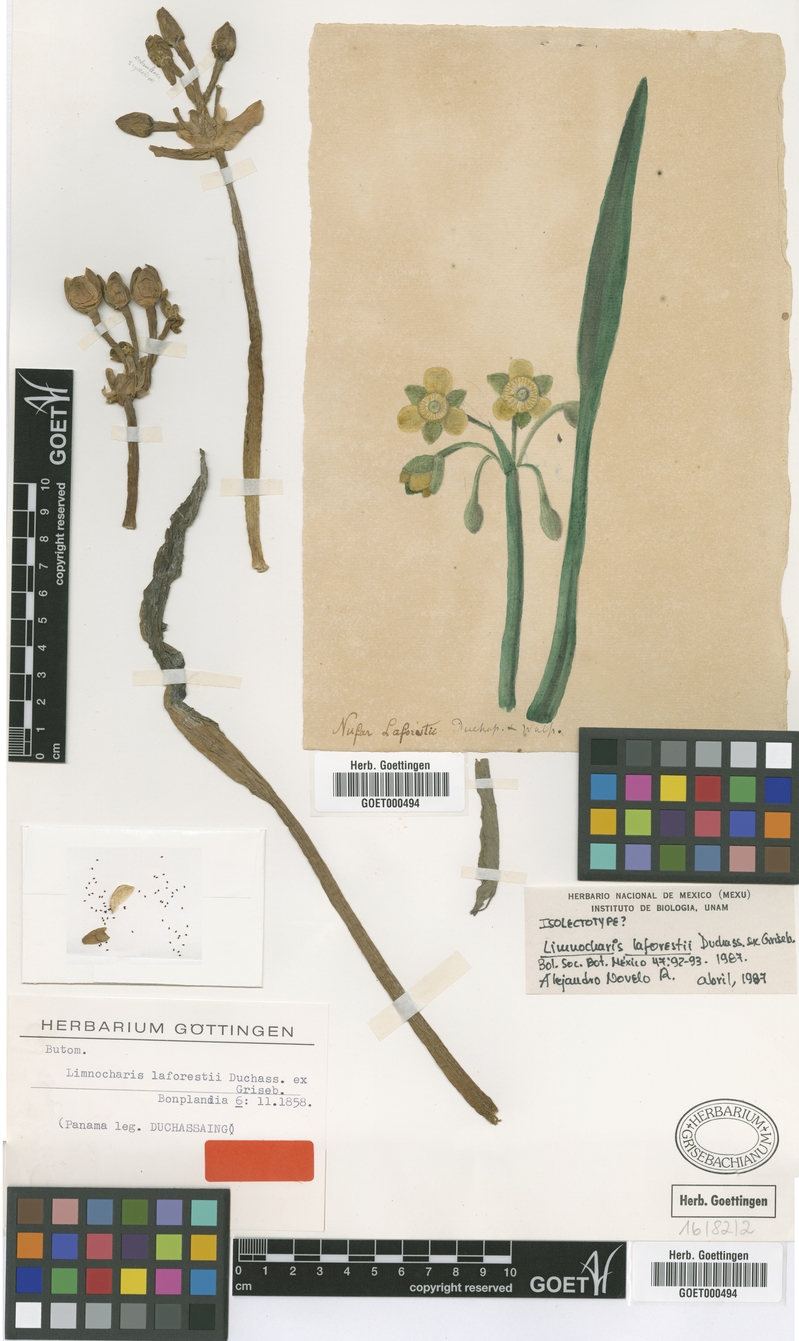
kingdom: Plantae
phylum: Tracheophyta
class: Liliopsida
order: Alismatales
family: Alismataceae
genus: Limnocharis
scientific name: Limnocharis laforestii
